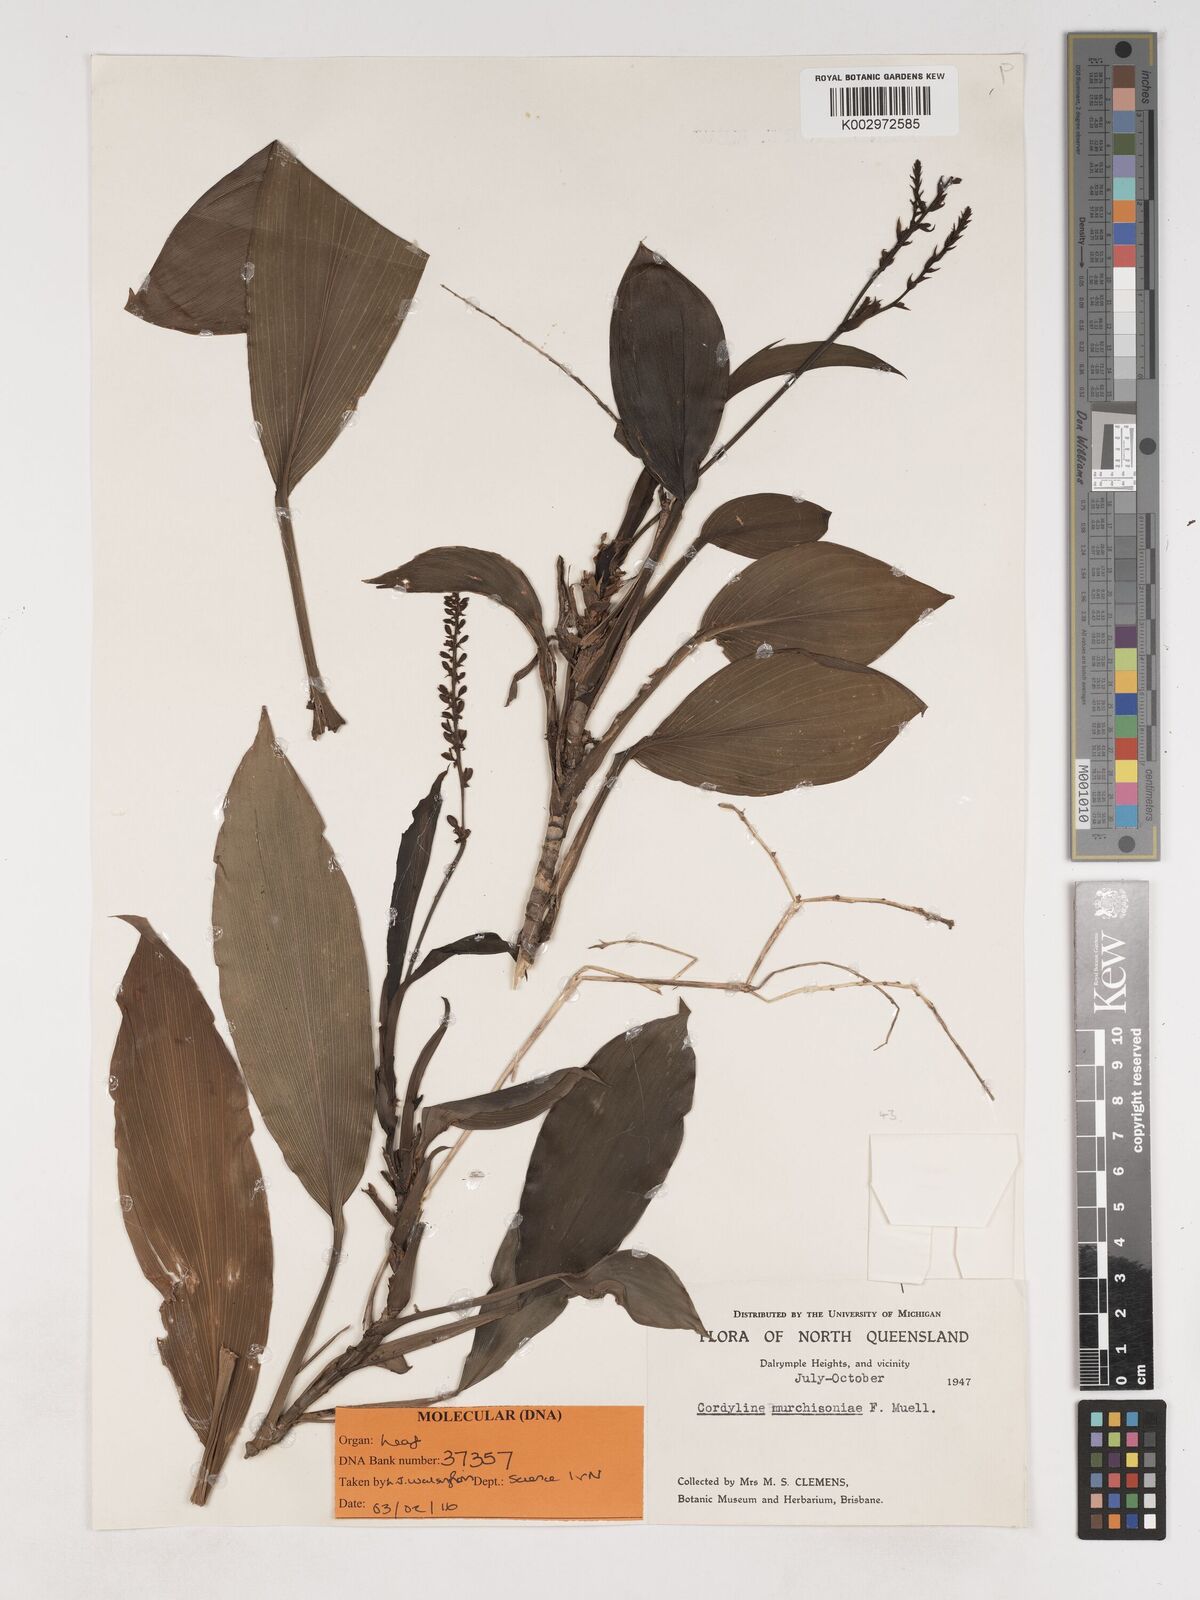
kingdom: Plantae
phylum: Tracheophyta
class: Liliopsida
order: Asparagales
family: Asparagaceae
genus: Cordyline
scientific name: Cordyline murchisoniae
